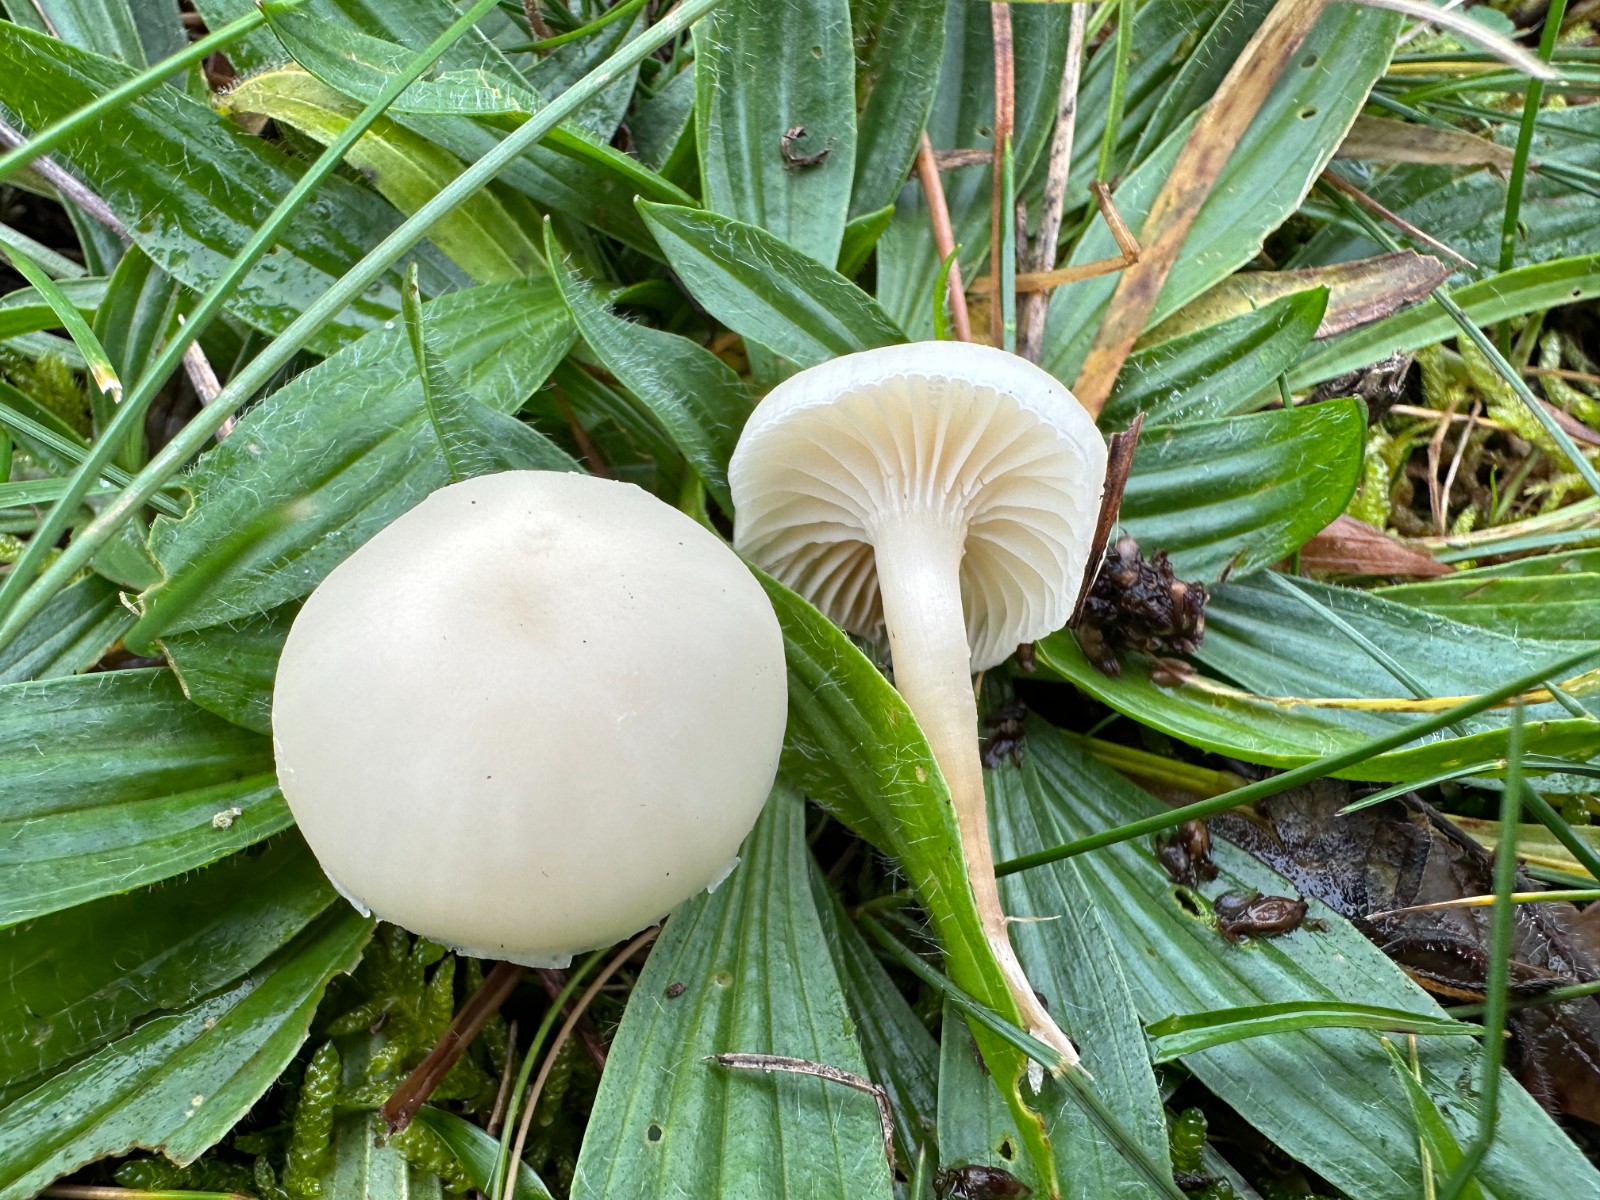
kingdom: Fungi
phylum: Basidiomycota
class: Agaricomycetes
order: Agaricales
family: Hygrophoraceae
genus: Cuphophyllus
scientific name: Cuphophyllus virgineus
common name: snehvid vokshat
